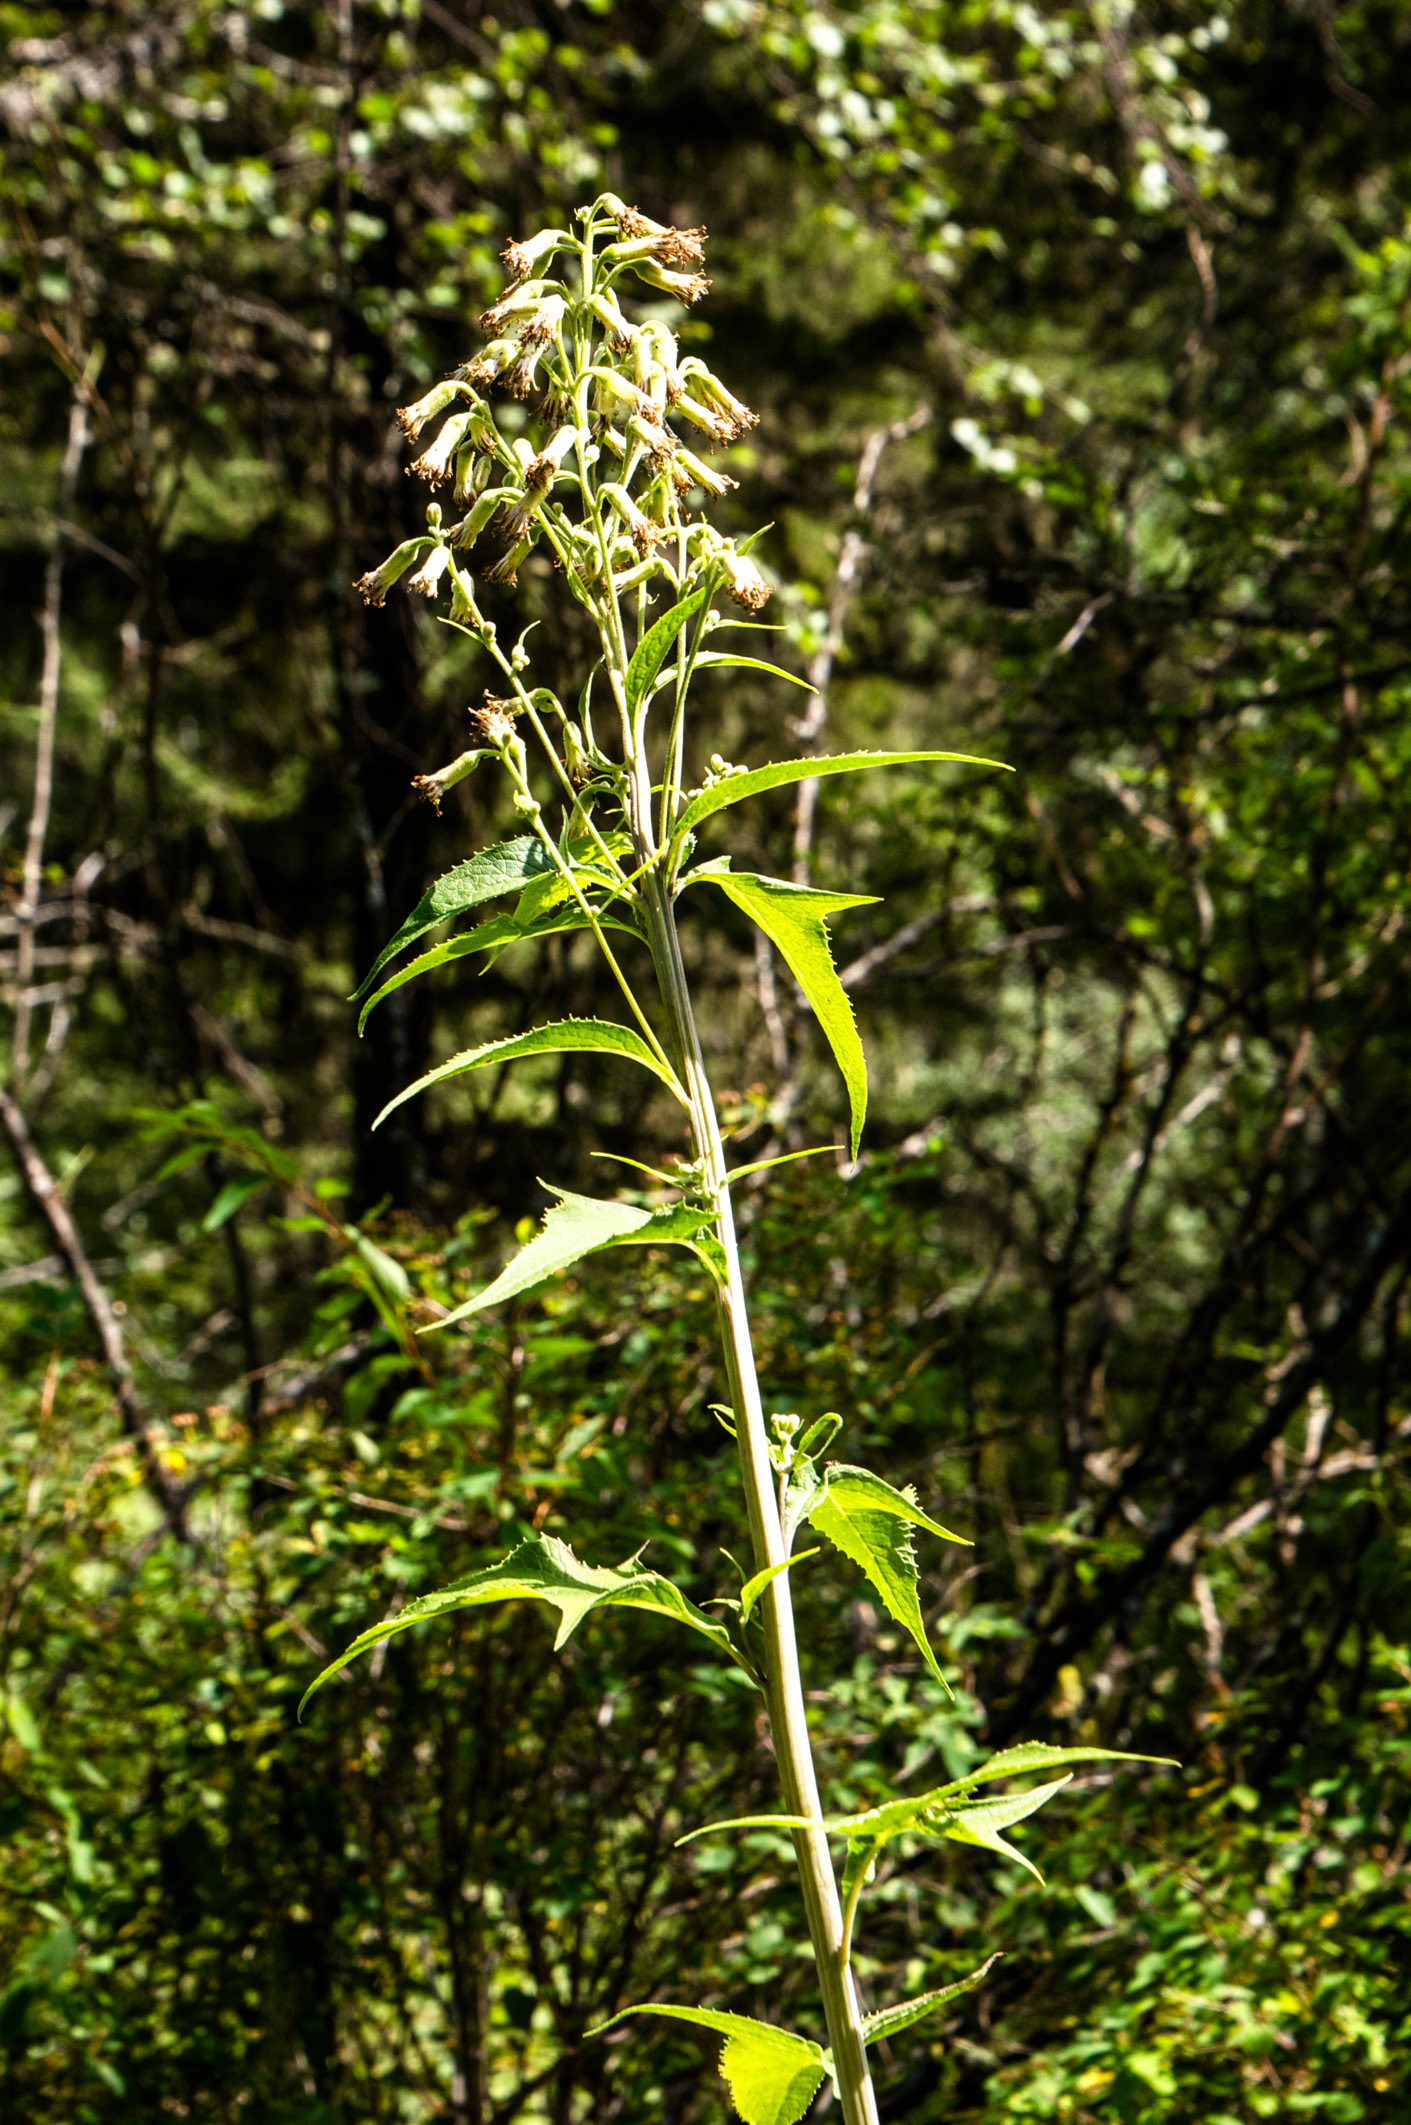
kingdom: Plantae
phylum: Tracheophyta
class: Magnoliopsida
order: Asterales
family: Asteraceae
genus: Parasenecio
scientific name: Parasenecio hastatus
